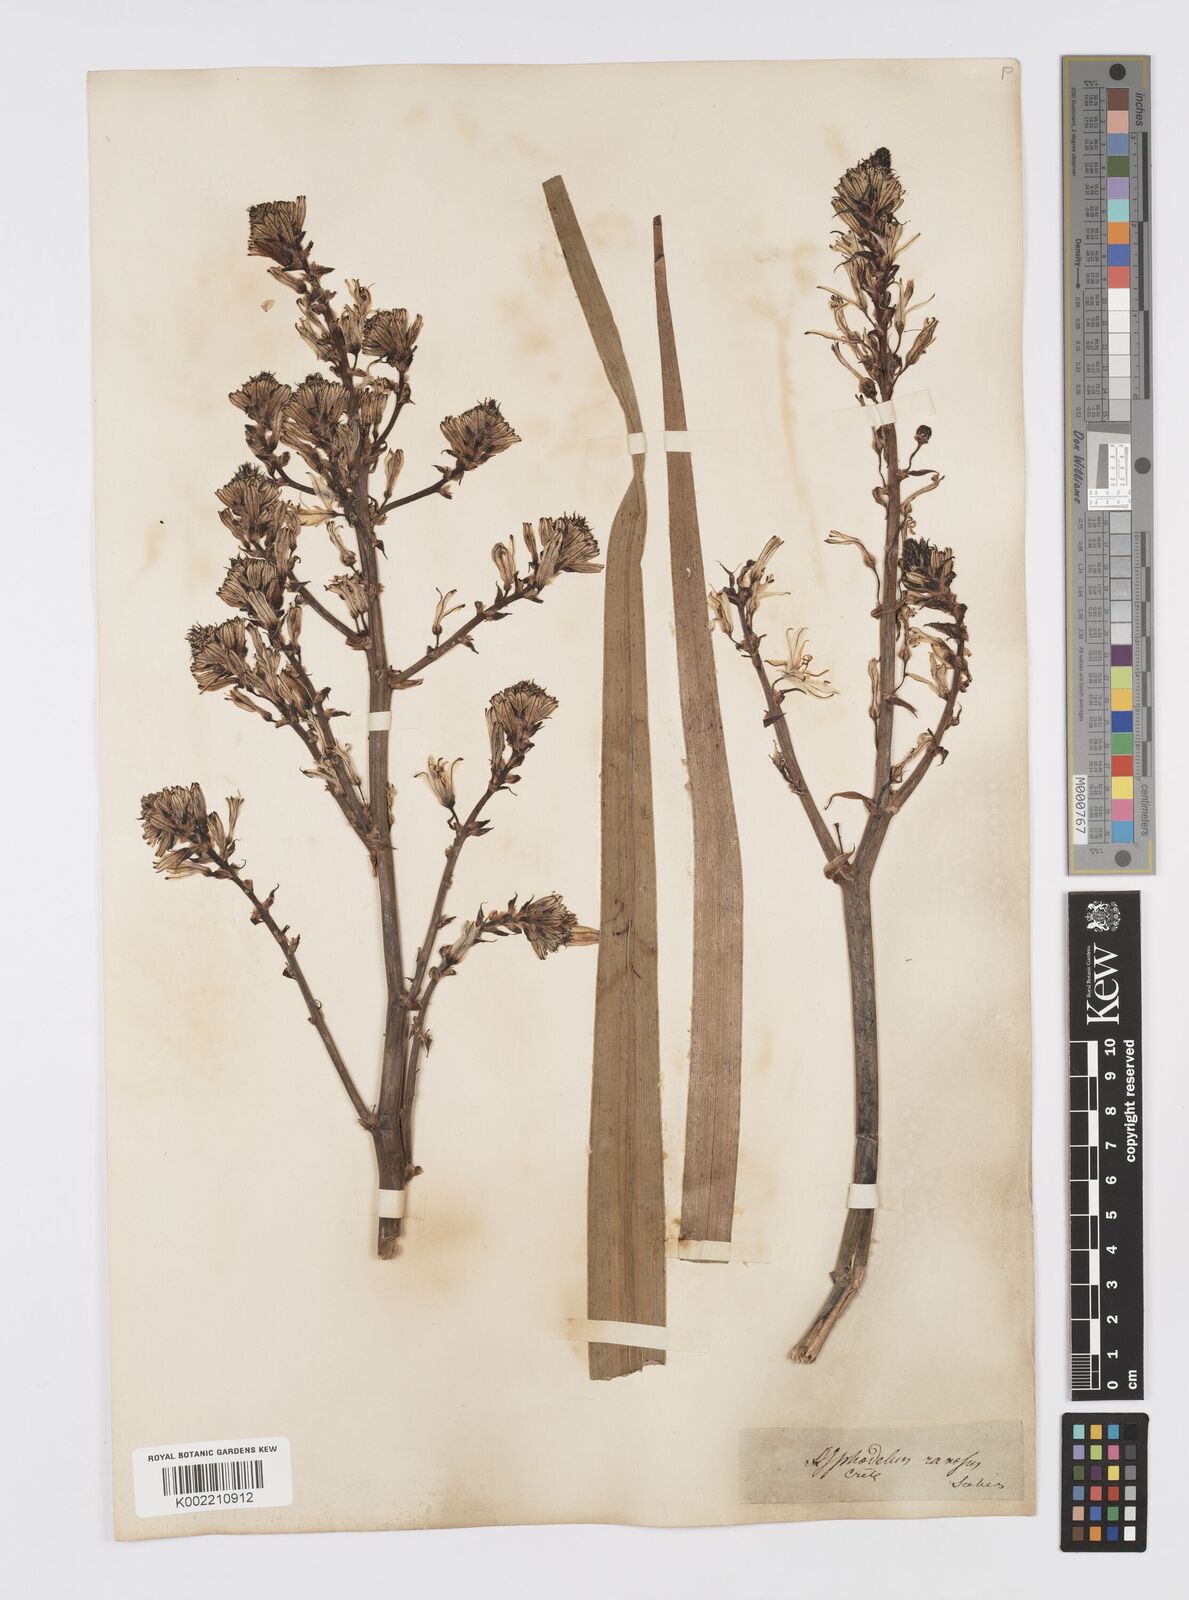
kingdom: Plantae
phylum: Tracheophyta
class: Liliopsida
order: Asparagales
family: Asphodelaceae
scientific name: Asphodelaceae
